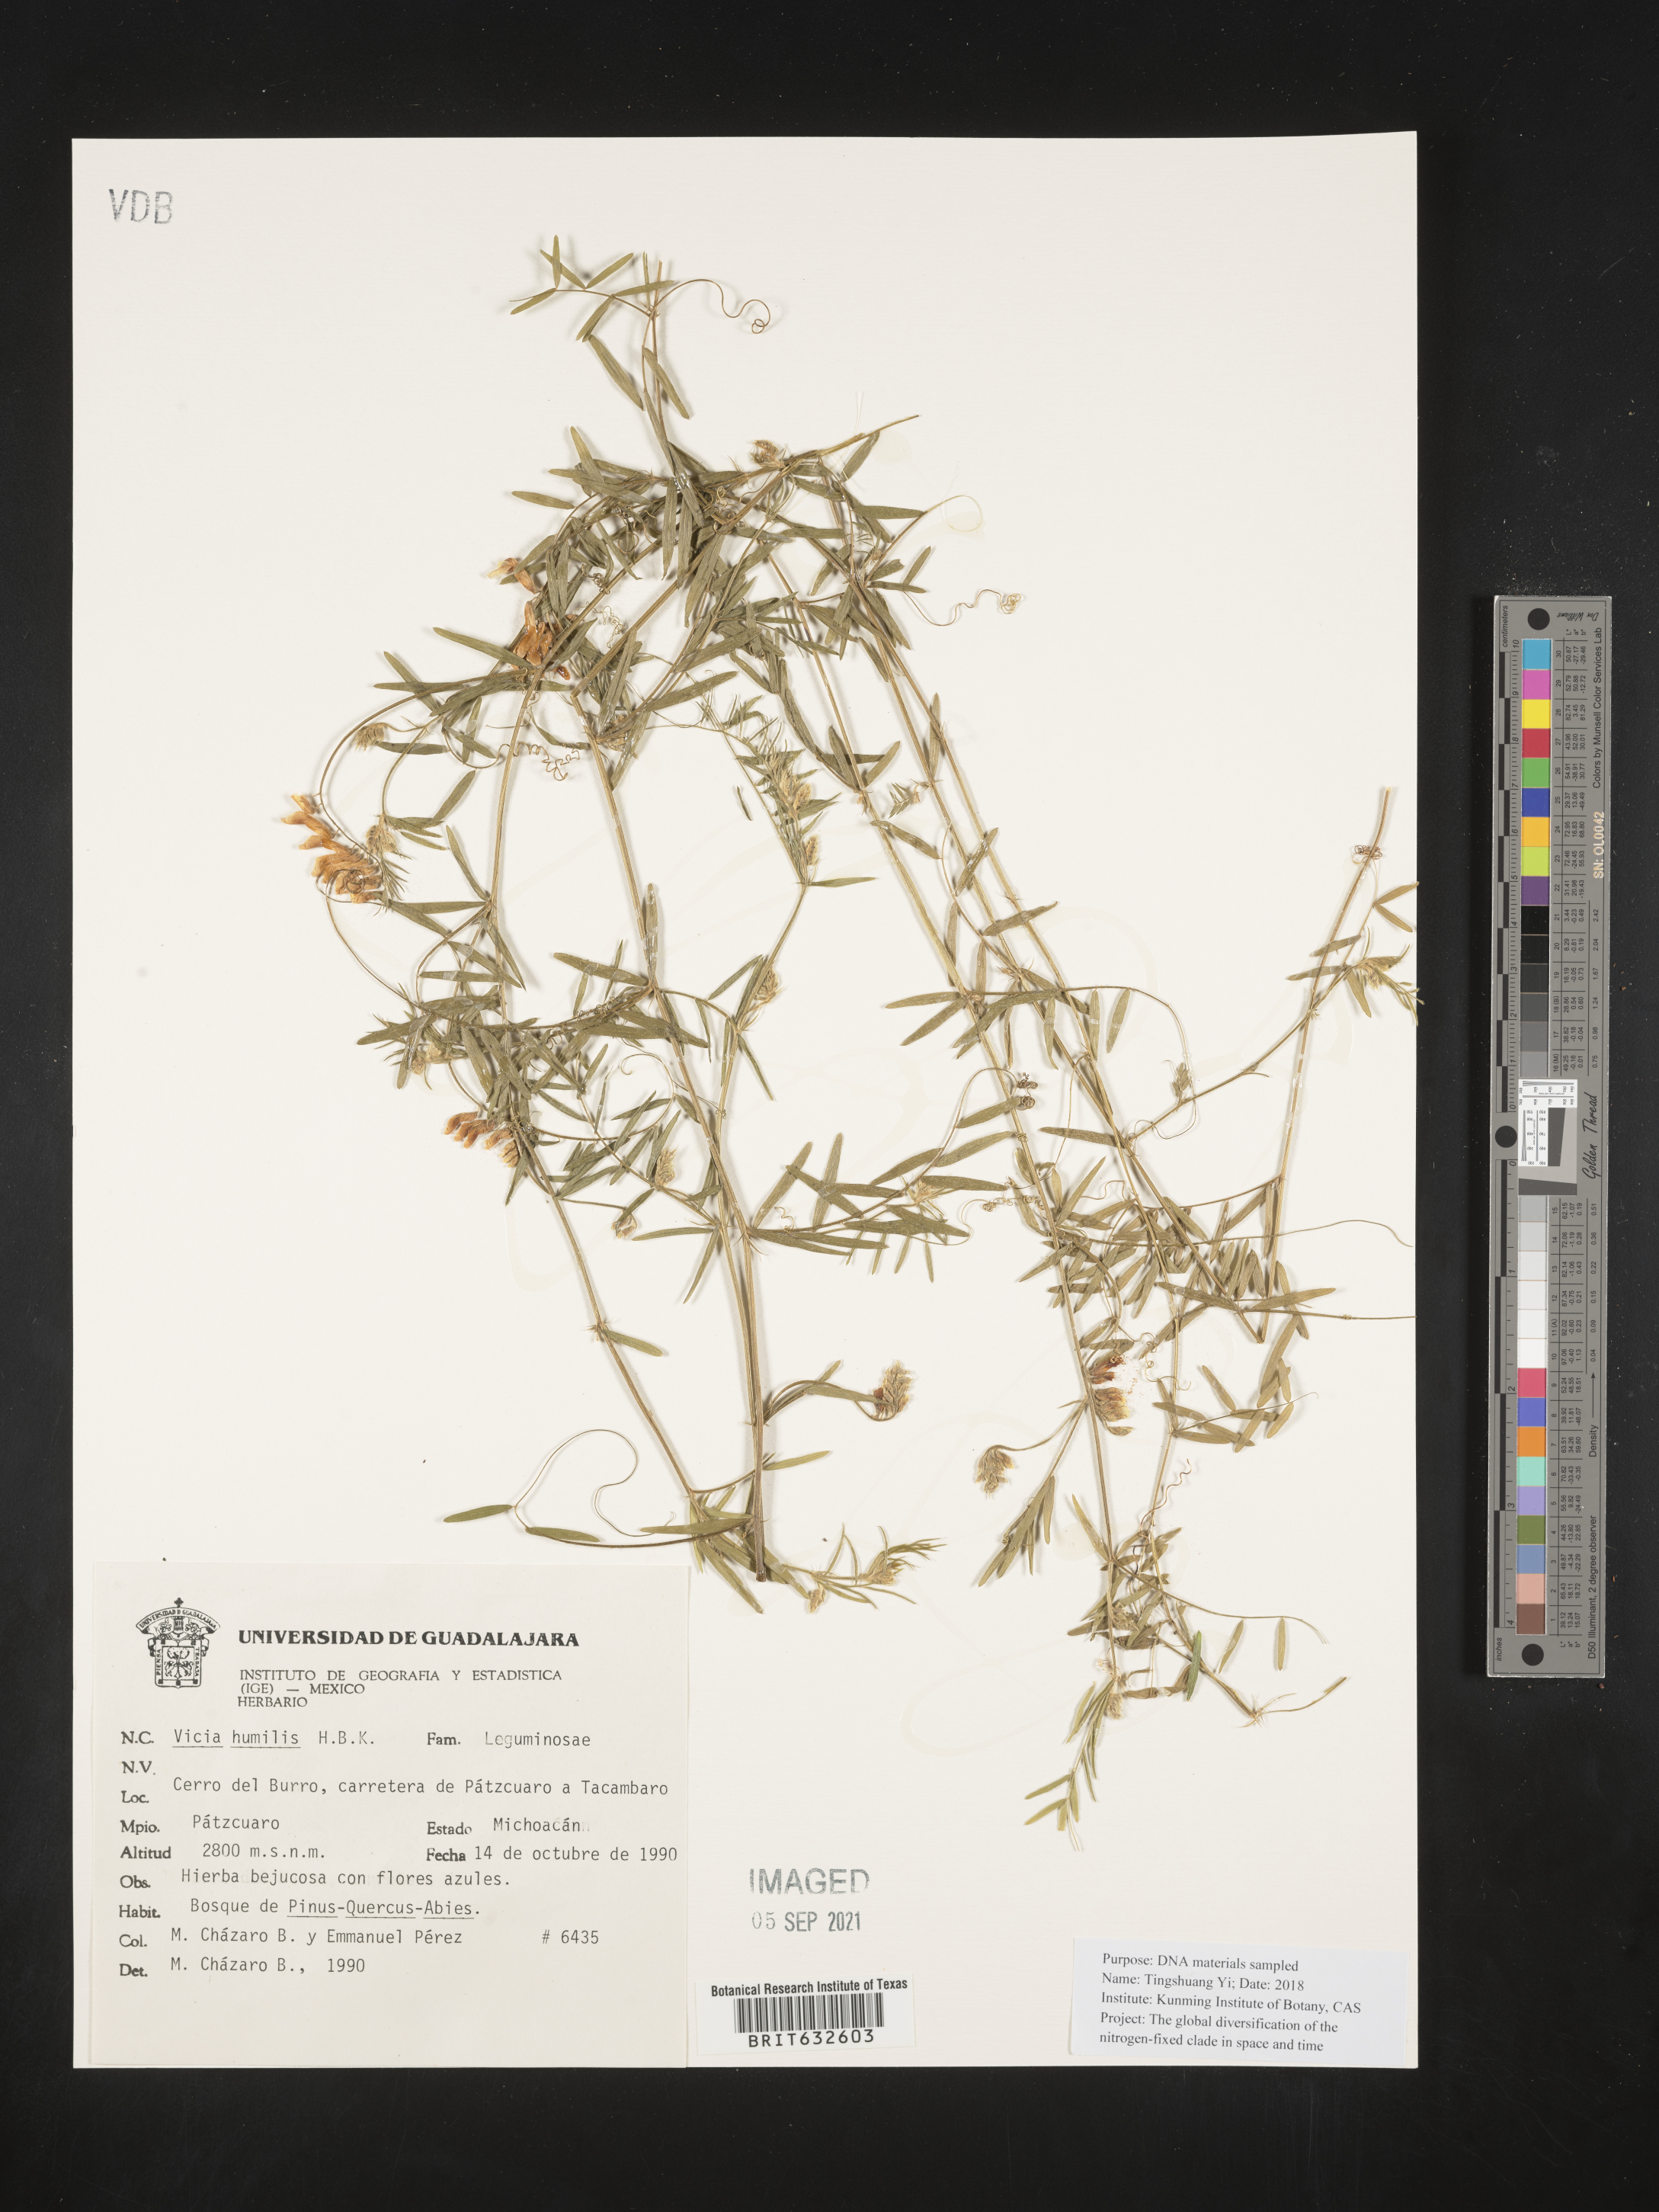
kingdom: Plantae
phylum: Tracheophyta
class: Magnoliopsida
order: Fabales
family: Fabaceae
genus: Vicia
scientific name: Vicia
